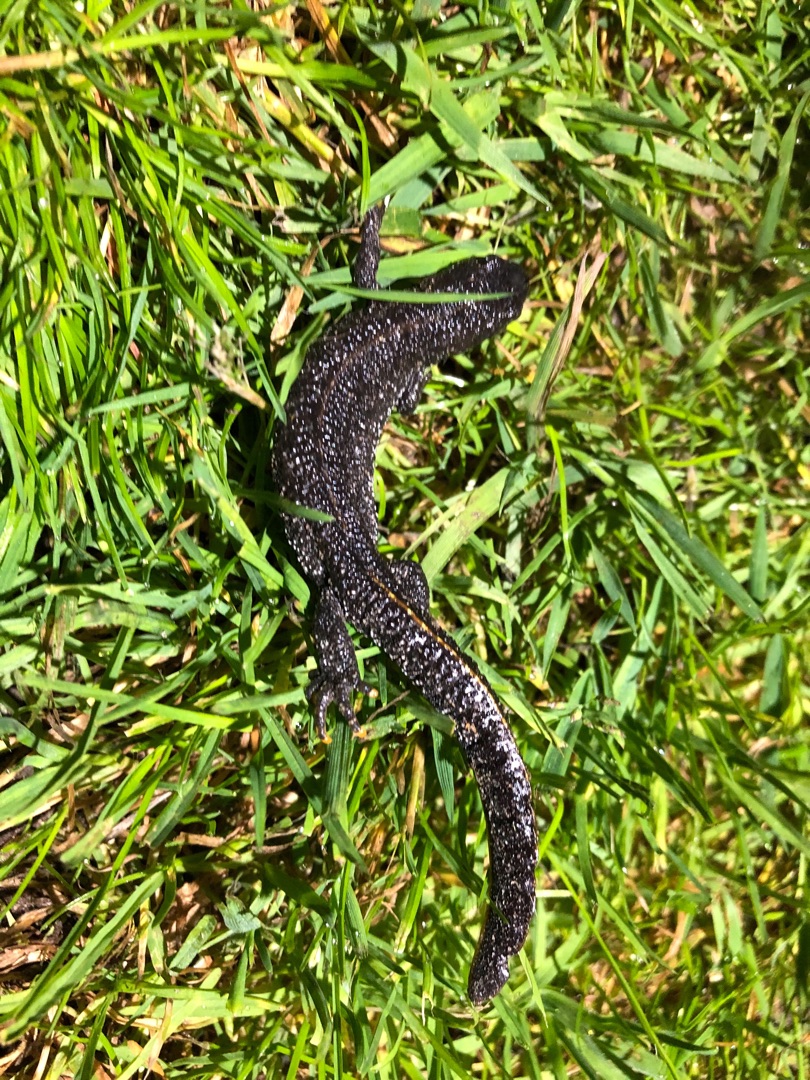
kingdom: Animalia
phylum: Chordata
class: Amphibia
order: Caudata
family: Salamandridae
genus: Triturus
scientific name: Triturus cristatus
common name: Stor vandsalamander
